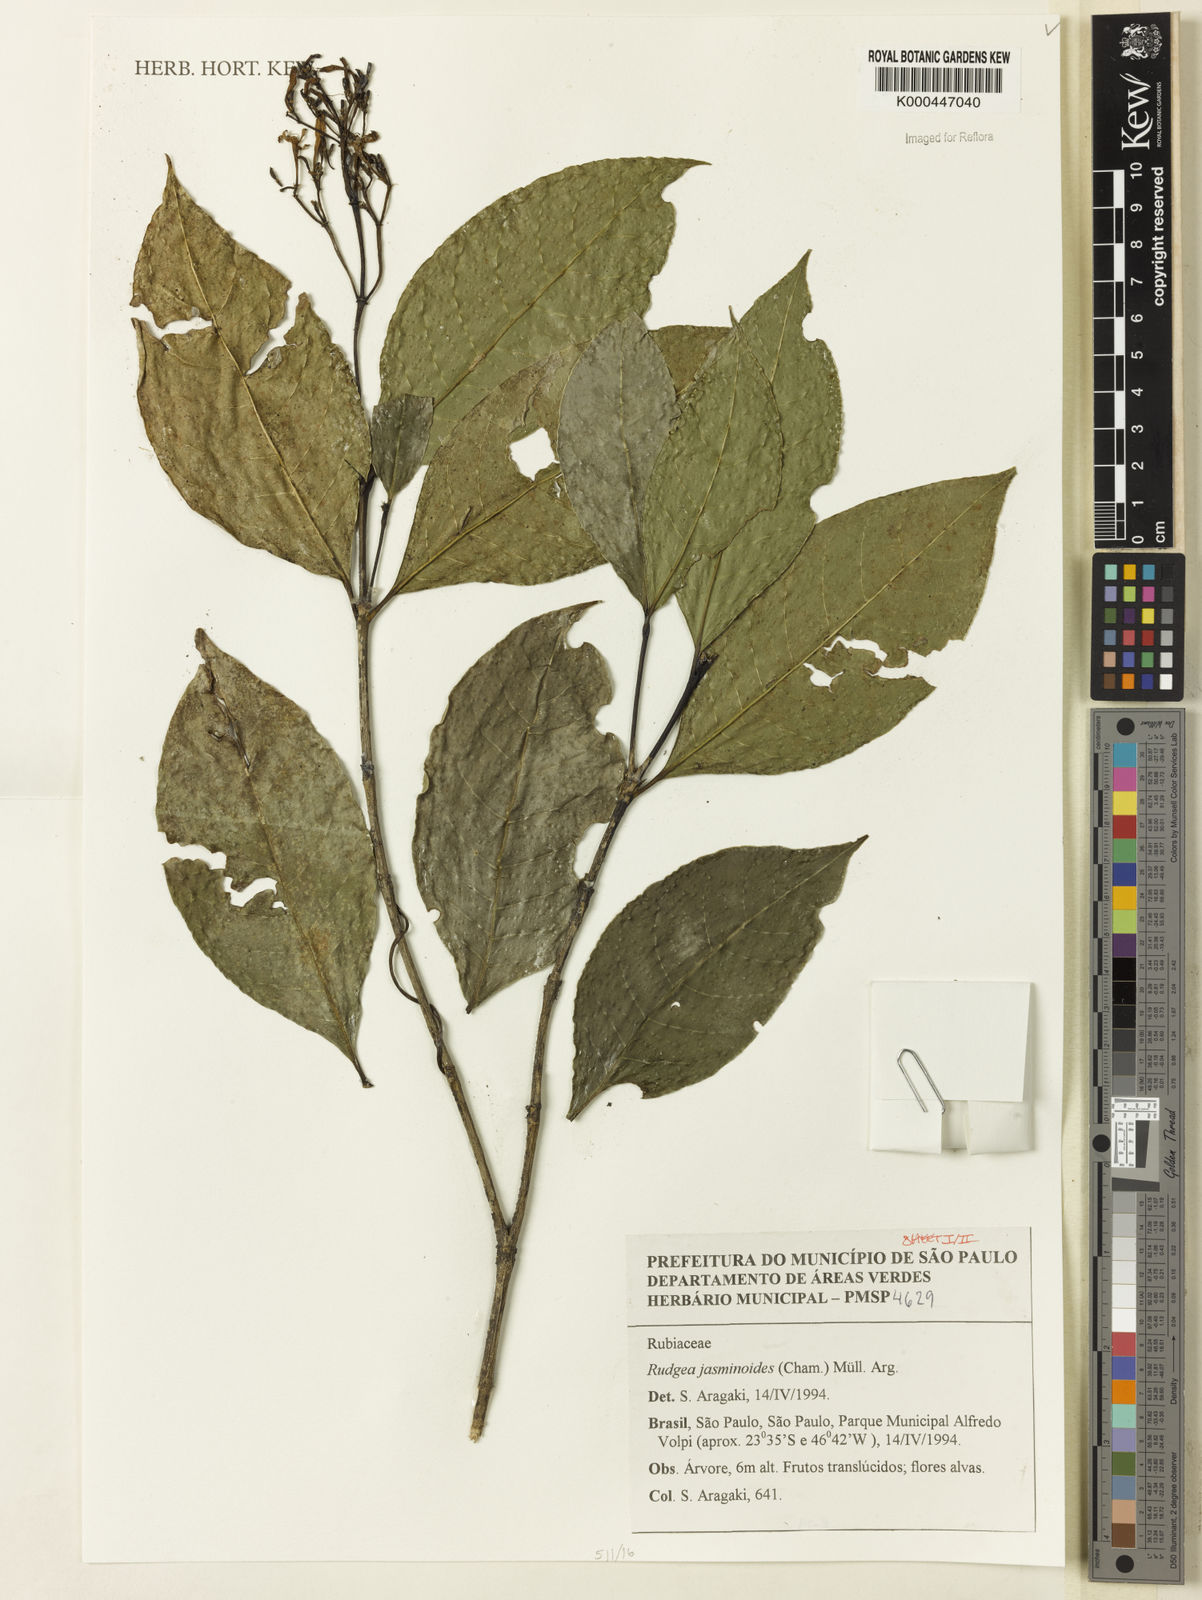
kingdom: Plantae
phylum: Tracheophyta
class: Magnoliopsida
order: Gentianales
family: Rubiaceae
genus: Rudgea
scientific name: Rudgea jasminoides
